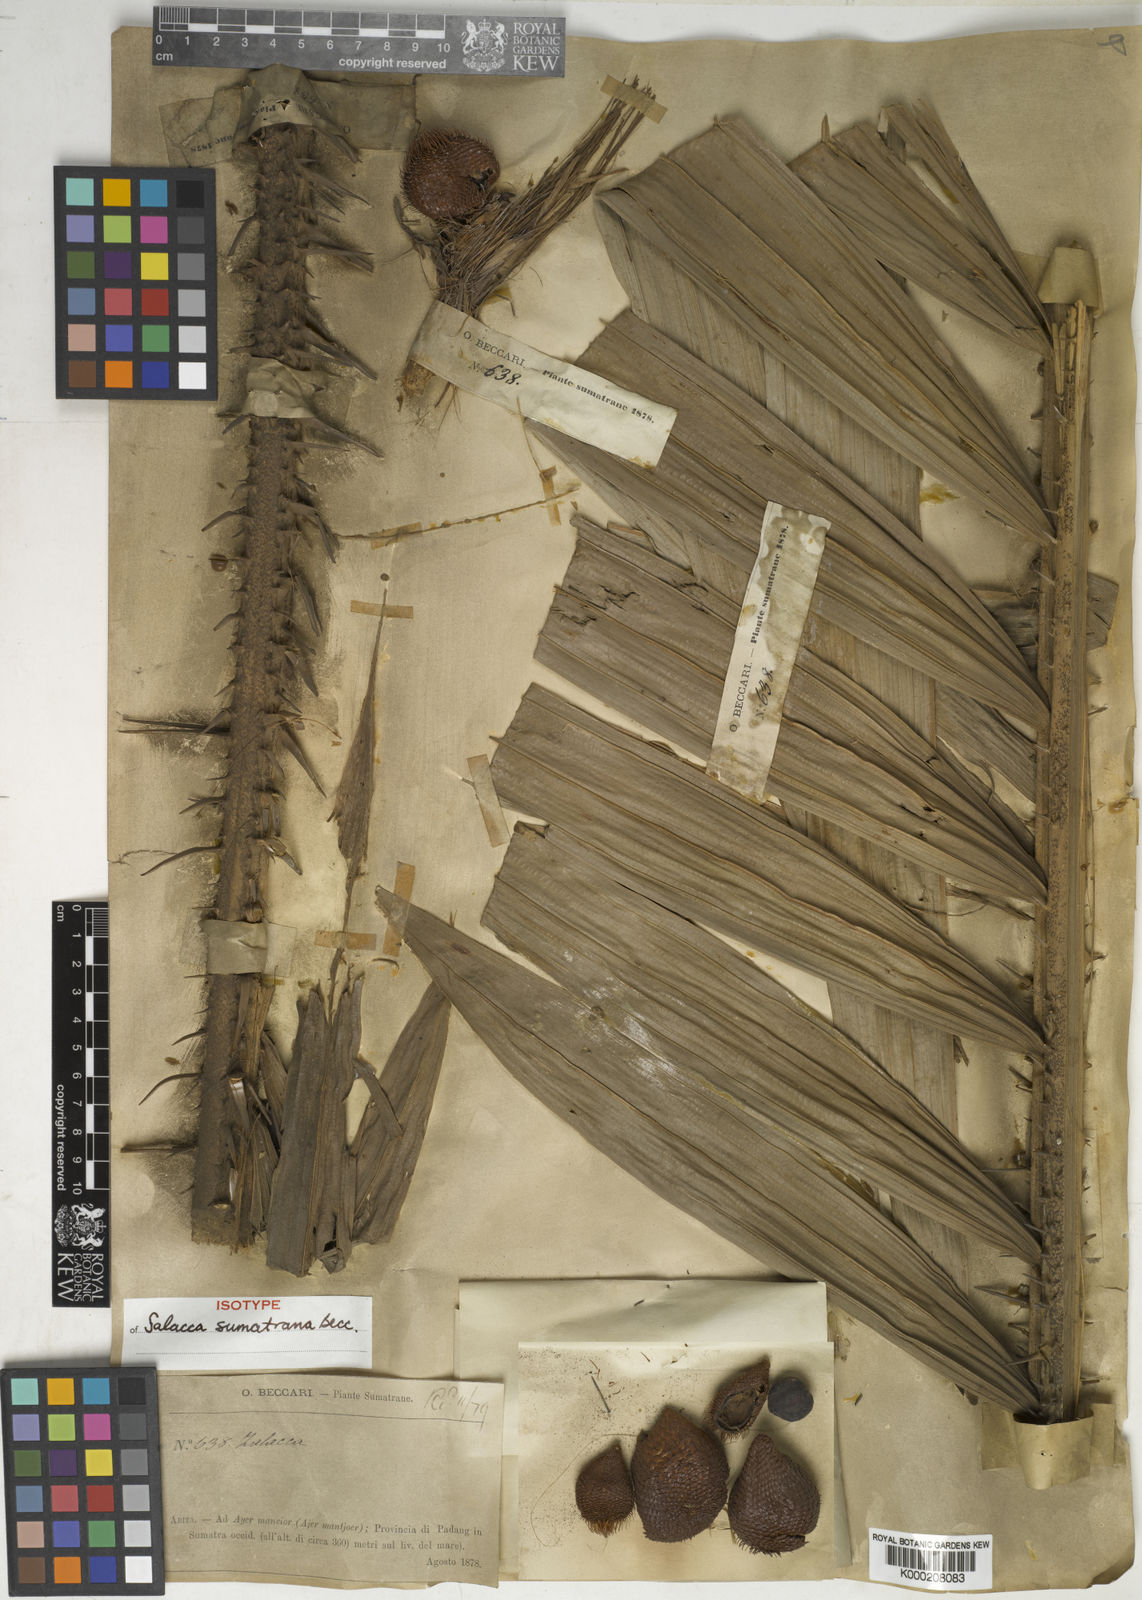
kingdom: Plantae
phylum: Tracheophyta
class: Liliopsida
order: Arecales
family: Arecaceae
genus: Salacca
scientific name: Salacca sumatrana
